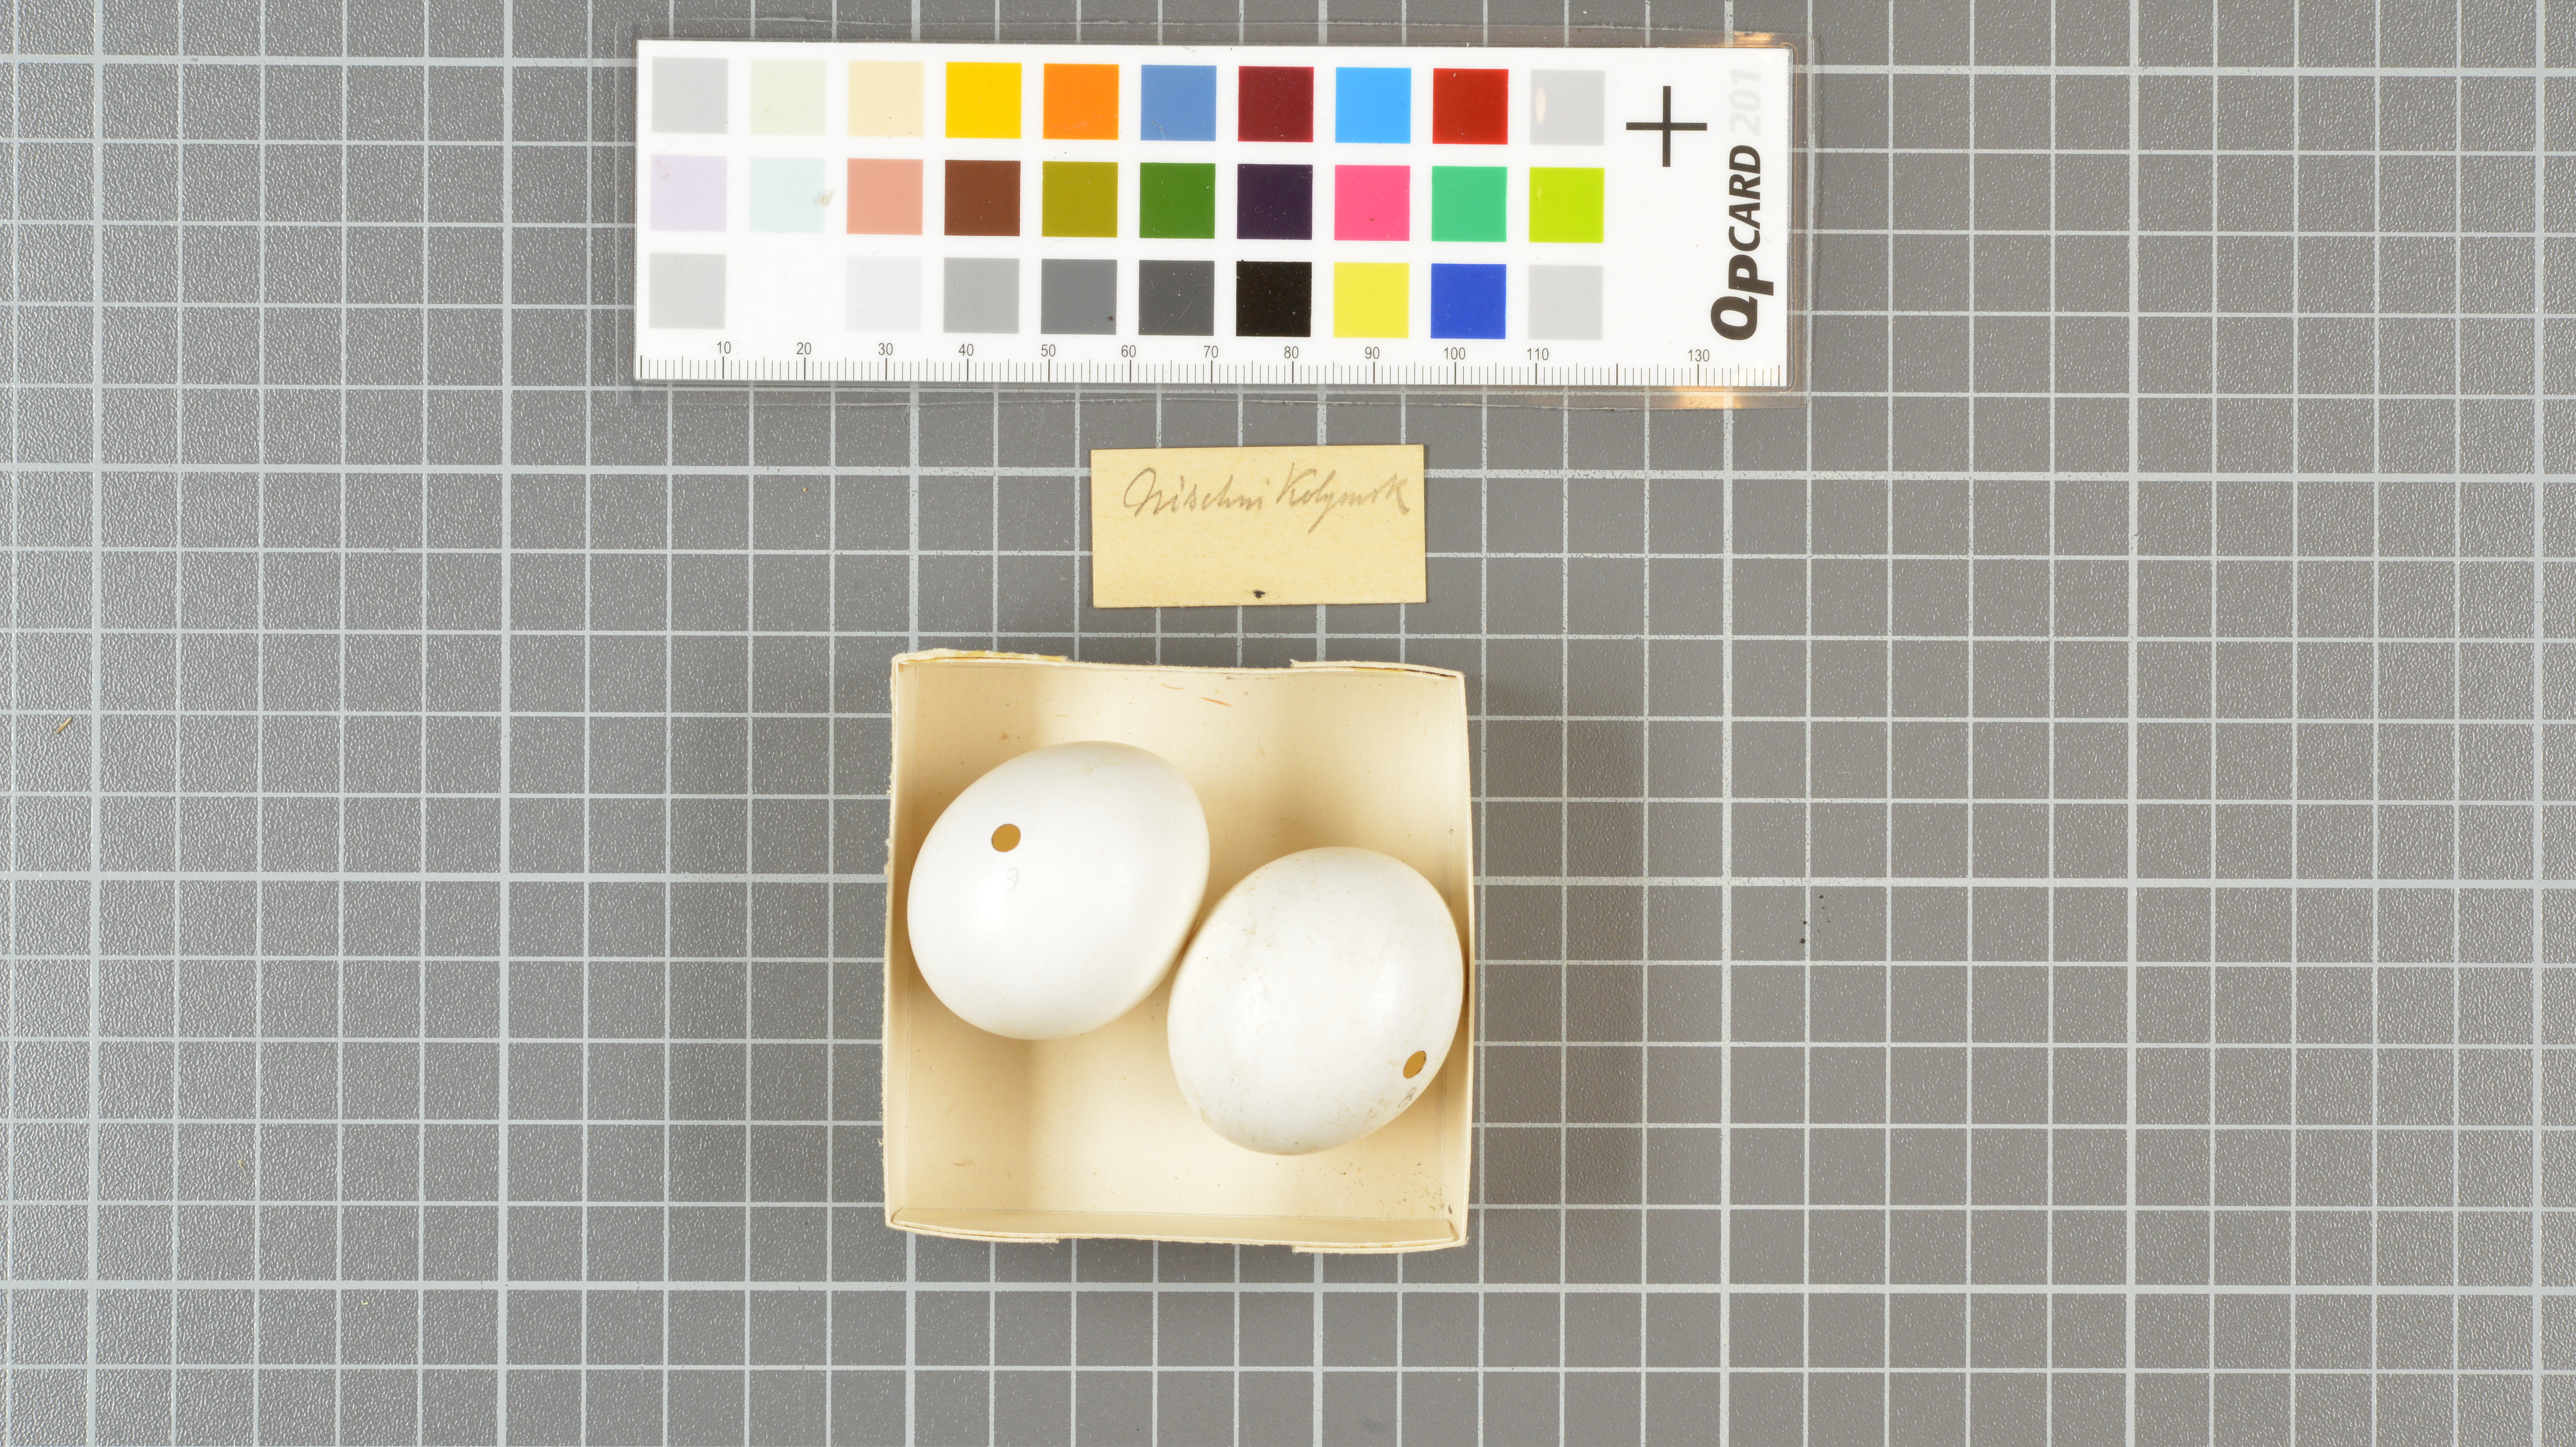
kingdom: Animalia
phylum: Chordata
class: Aves
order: Strigiformes
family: Strigidae
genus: Asio
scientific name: Asio flammeus
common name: Short-eared owl
